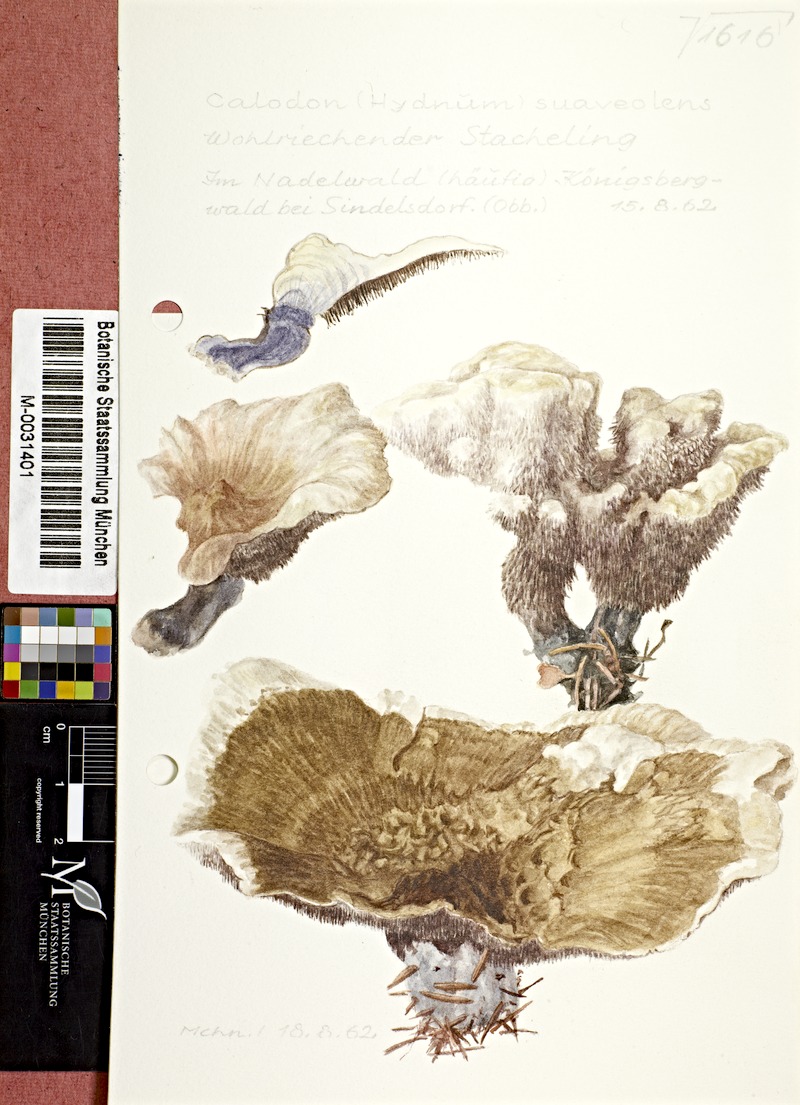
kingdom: Fungi
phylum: Basidiomycota
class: Agaricomycetes
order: Thelephorales
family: Bankeraceae
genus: Hydnellum
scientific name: Hydnellum suaveolens
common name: Sweetgrass hydnellum
